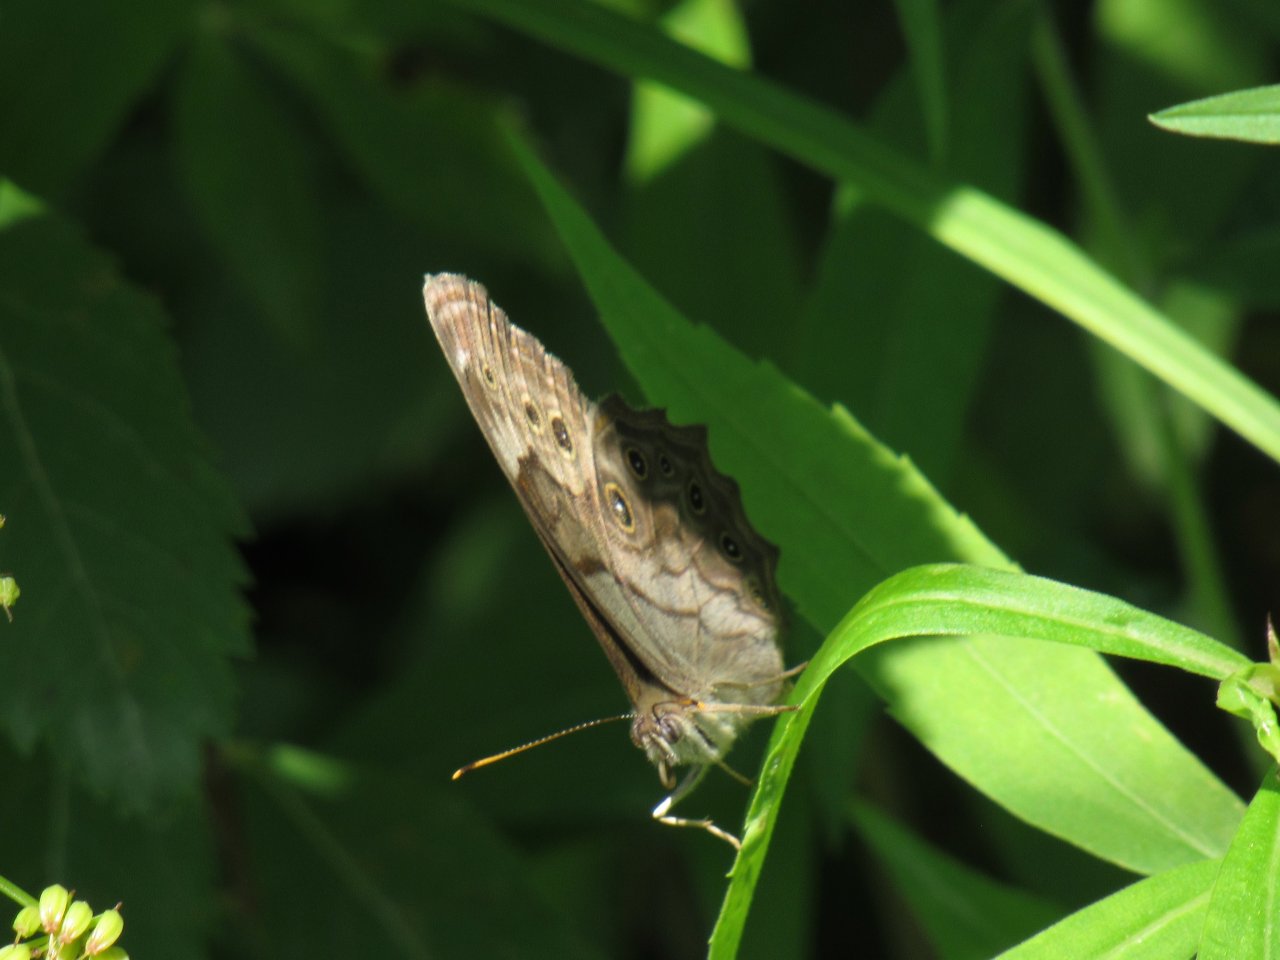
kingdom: Animalia
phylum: Arthropoda
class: Insecta
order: Lepidoptera
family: Nymphalidae
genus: Lethe
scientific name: Lethe anthedon
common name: Northern Pearly-Eye
